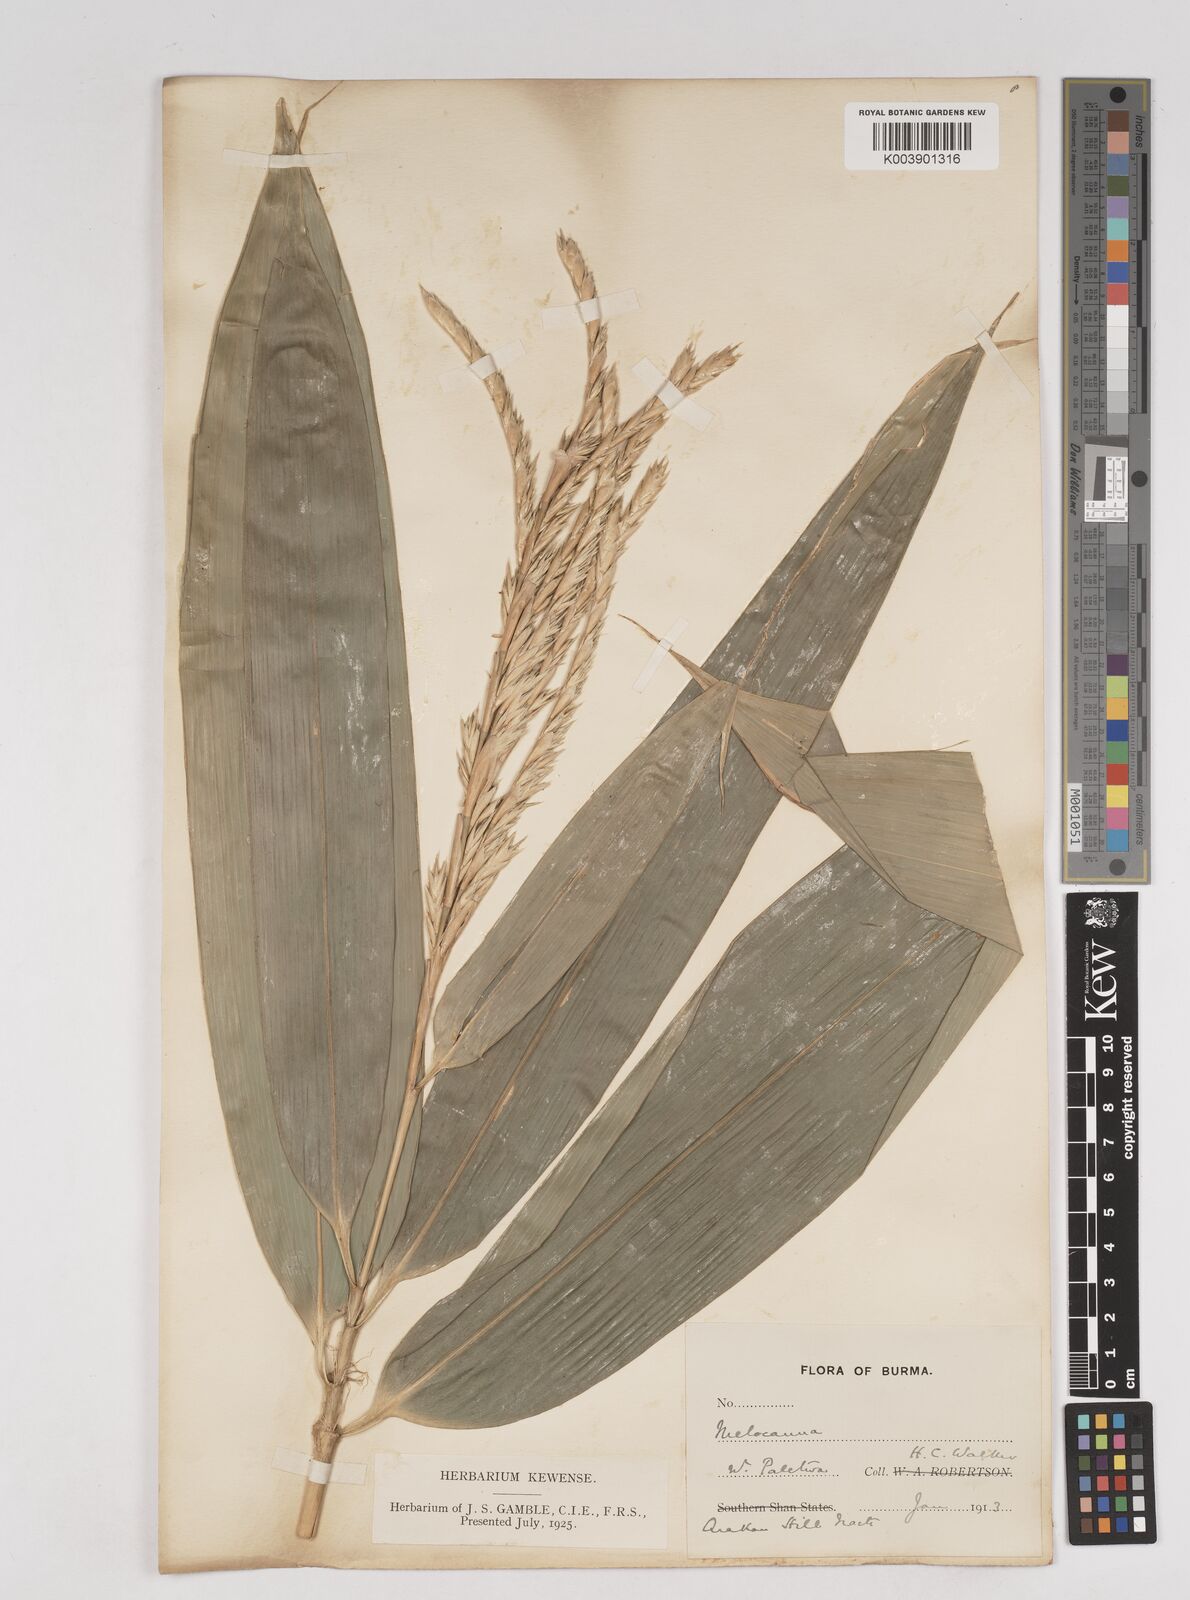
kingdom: Plantae
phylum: Tracheophyta
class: Liliopsida
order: Poales
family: Poaceae
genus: Melocanna
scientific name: Melocanna
